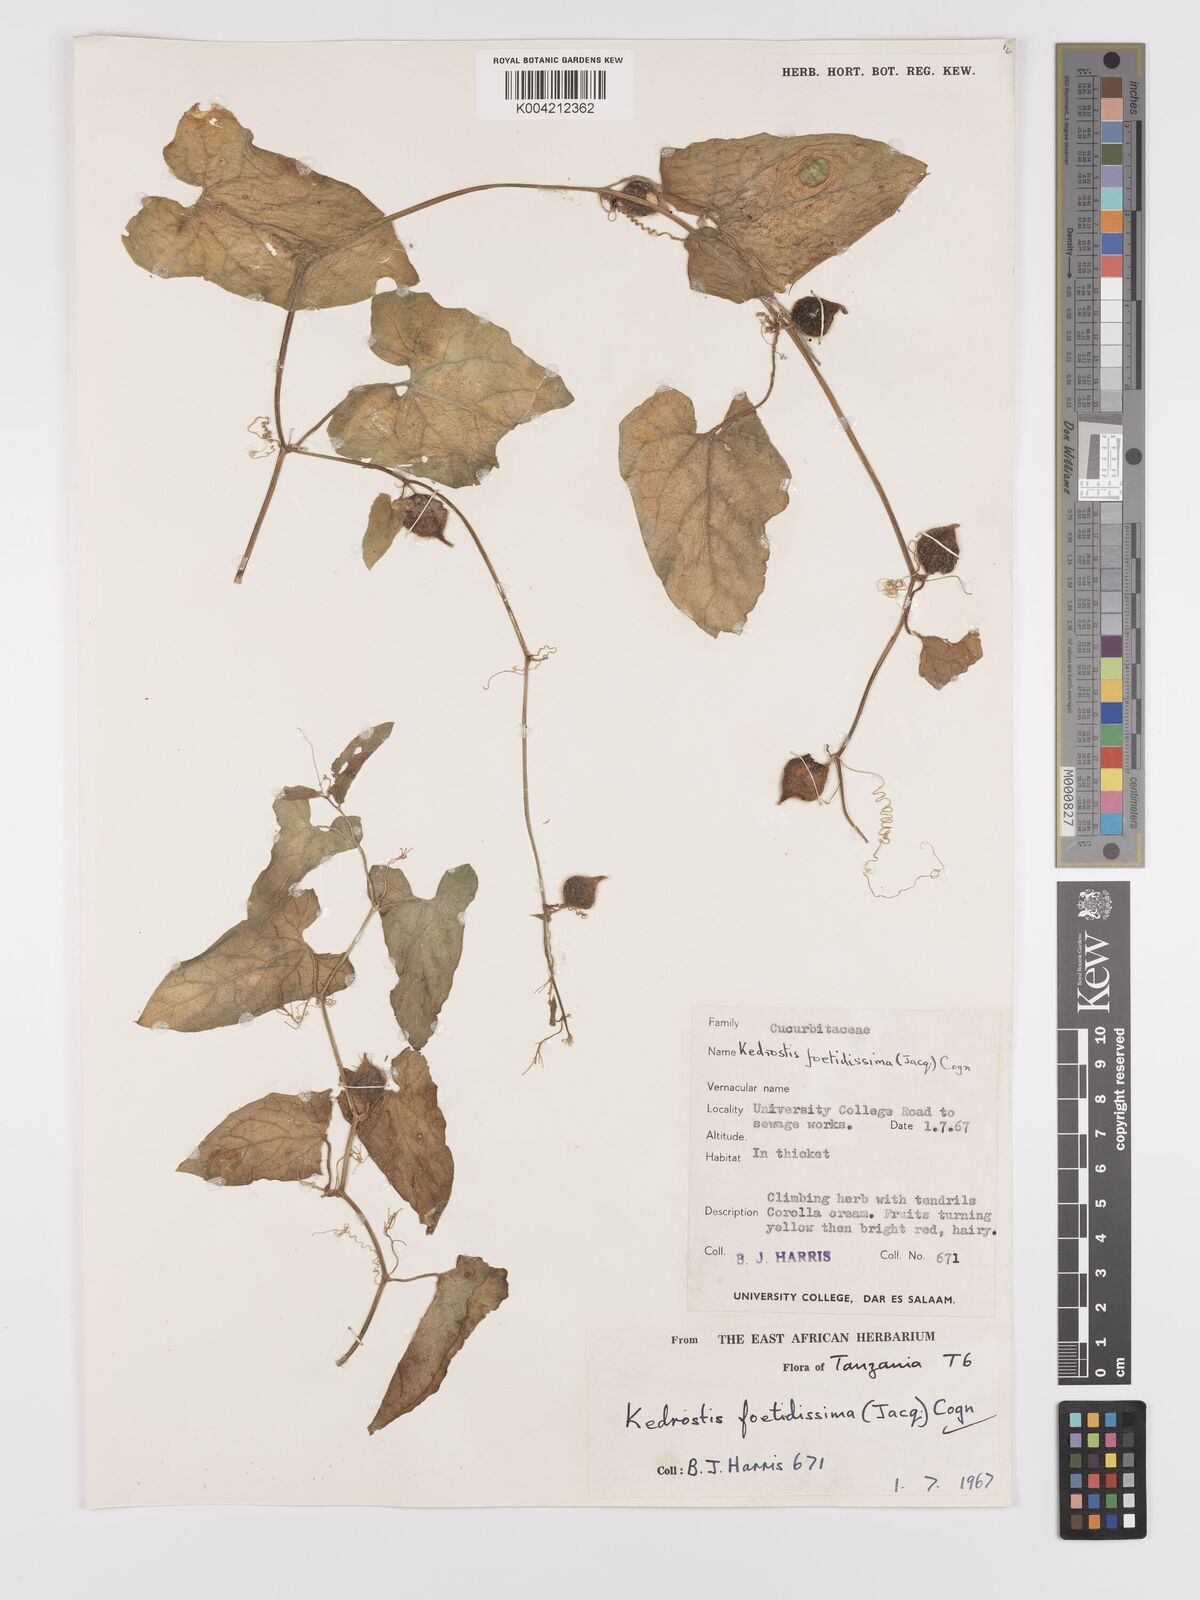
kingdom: Plantae
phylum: Tracheophyta
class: Magnoliopsida
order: Cucurbitales
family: Cucurbitaceae
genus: Kedrostis
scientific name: Kedrostis foetidissima
